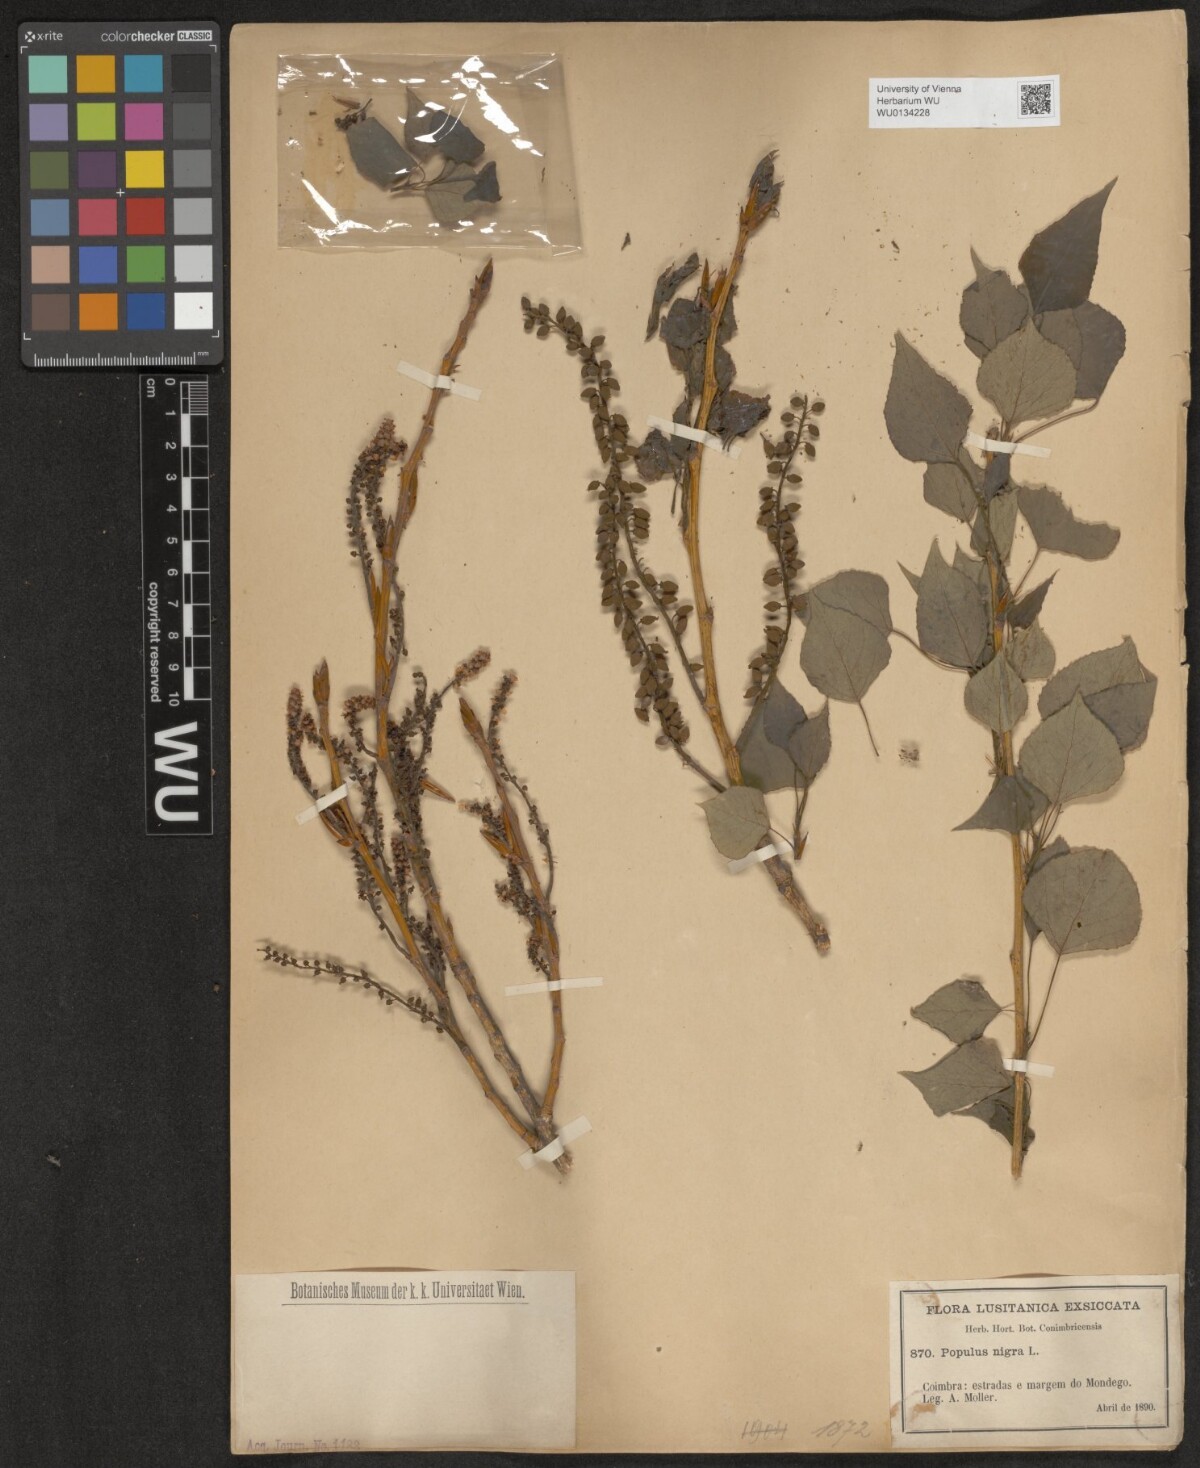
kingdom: Plantae
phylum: Tracheophyta
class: Magnoliopsida
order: Malpighiales
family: Salicaceae
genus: Populus
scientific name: Populus nigra
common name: Black poplar
